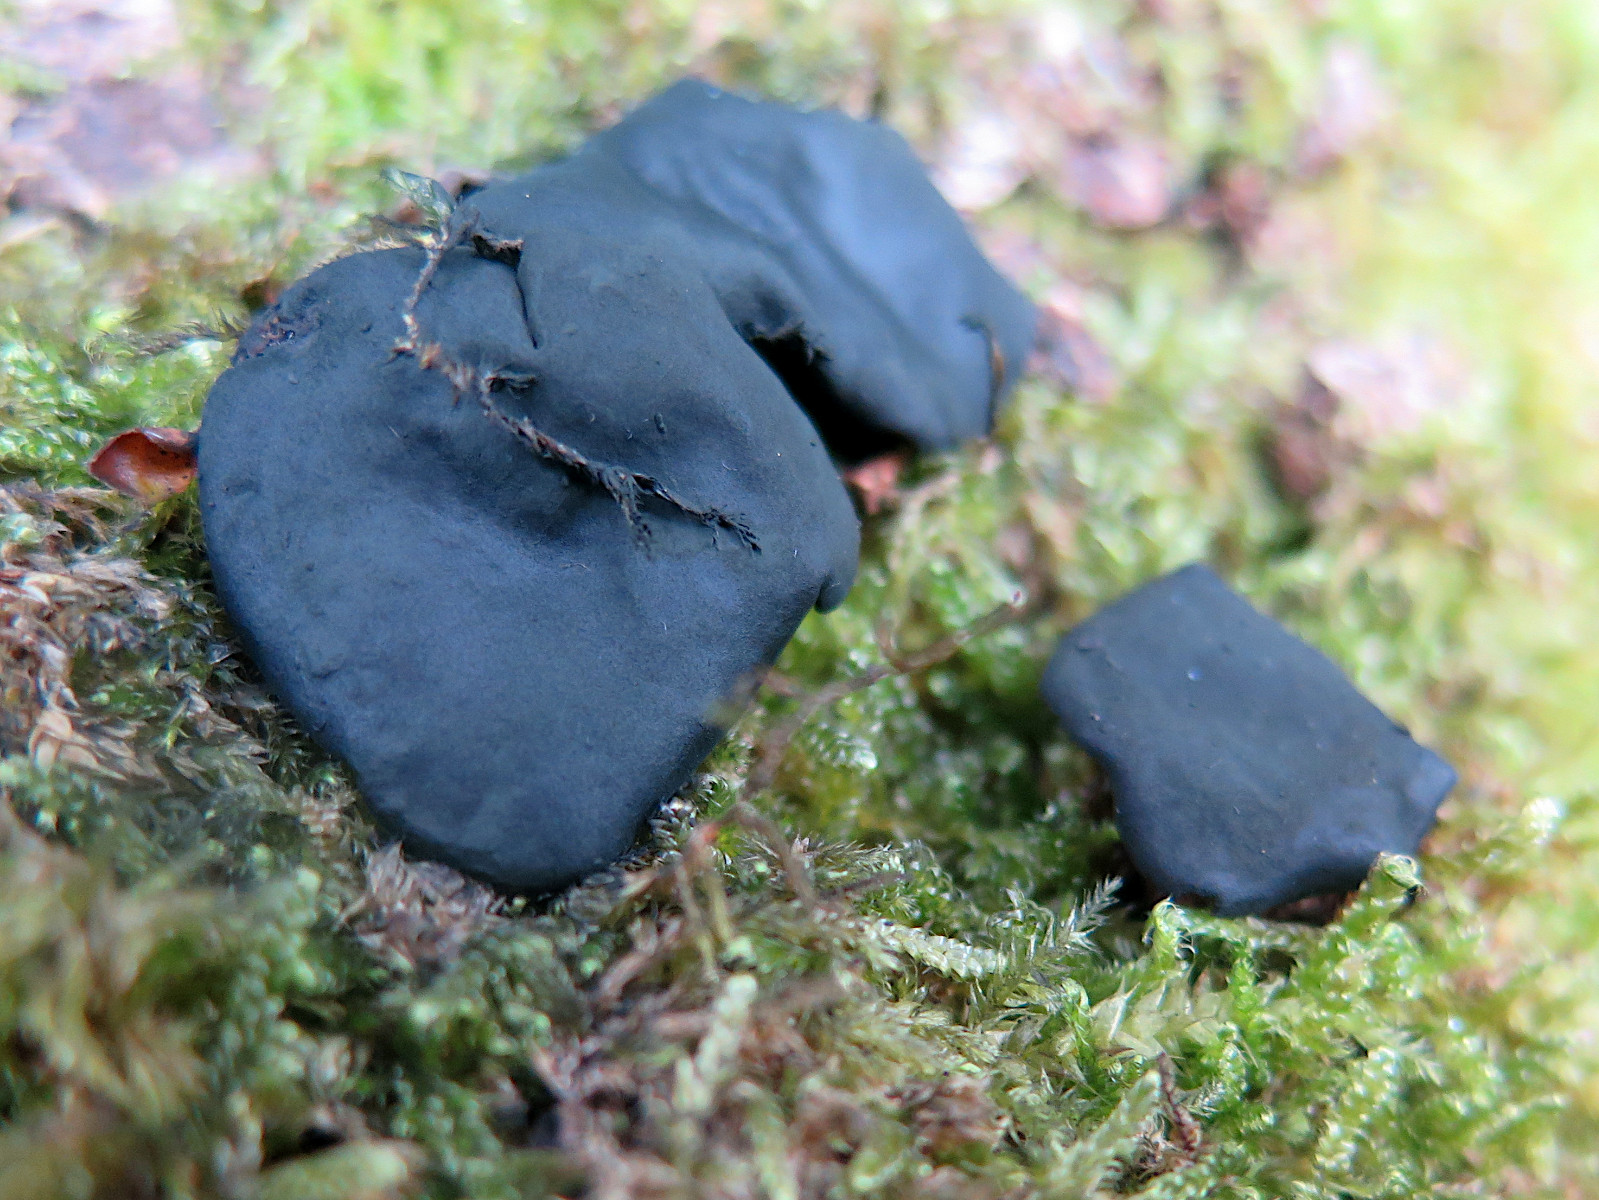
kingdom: Fungi
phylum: Ascomycota
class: Leotiomycetes
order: Phacidiales
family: Phacidiaceae
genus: Bulgaria
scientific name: Bulgaria inquinans
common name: afsmittende topsvamp
